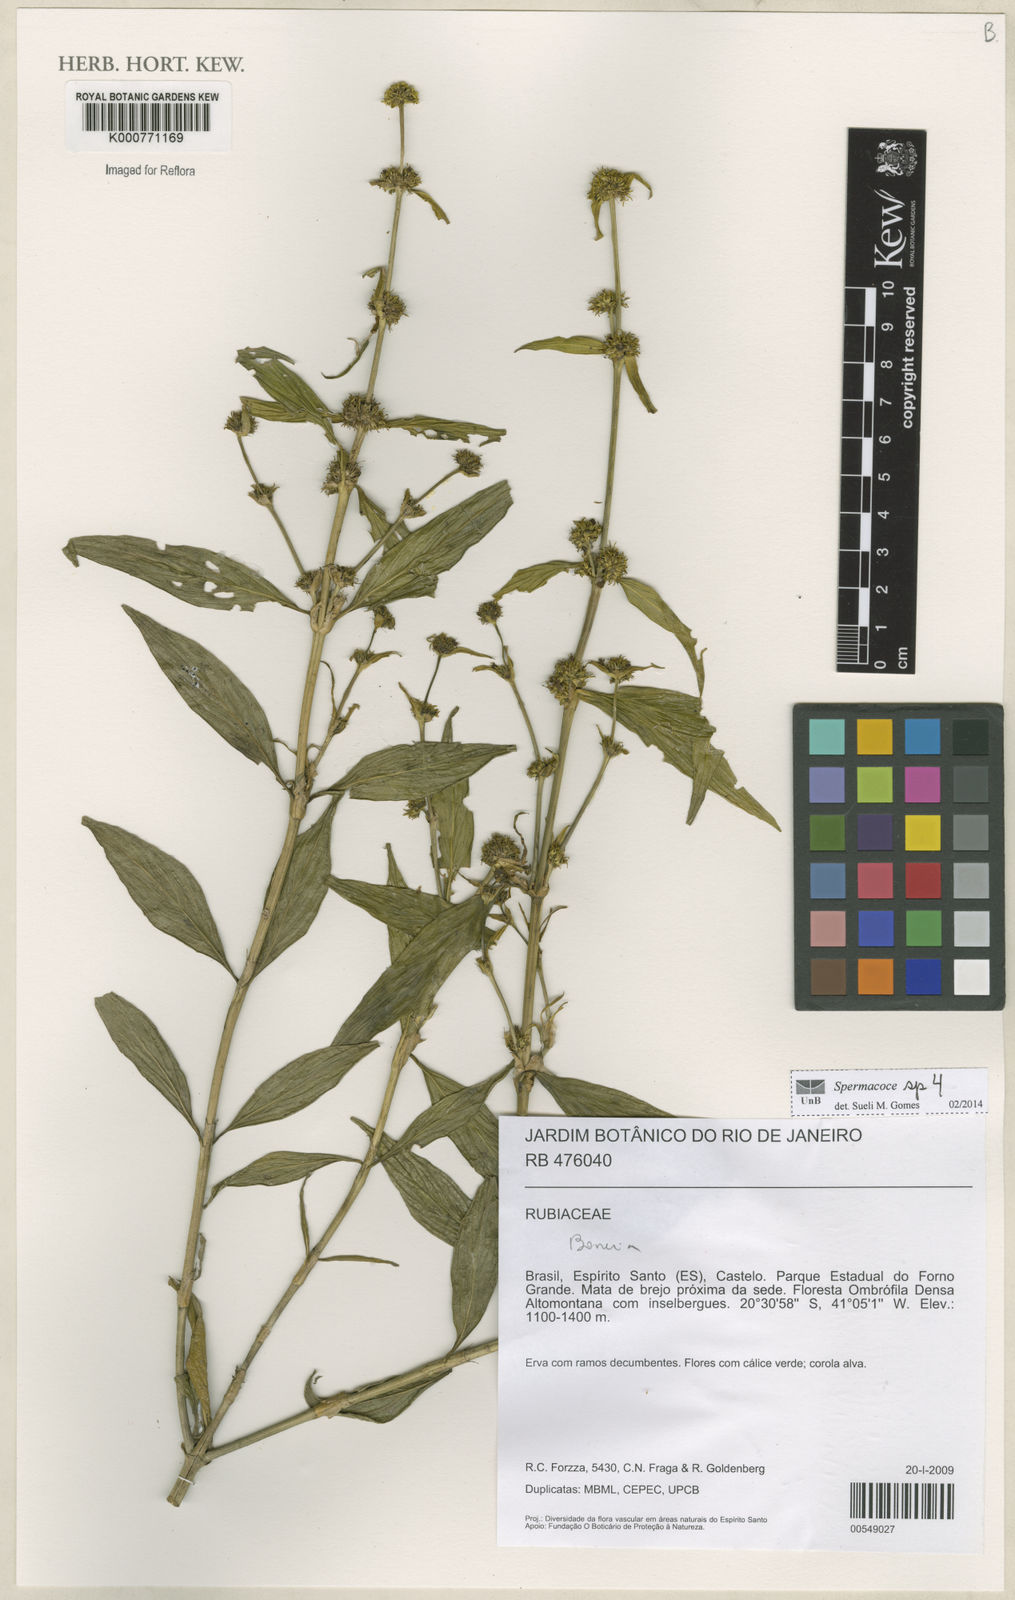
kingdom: Plantae
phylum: Tracheophyta
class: Magnoliopsida
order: Gentianales
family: Rubiaceae
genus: Spermacoce
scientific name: Spermacoce
